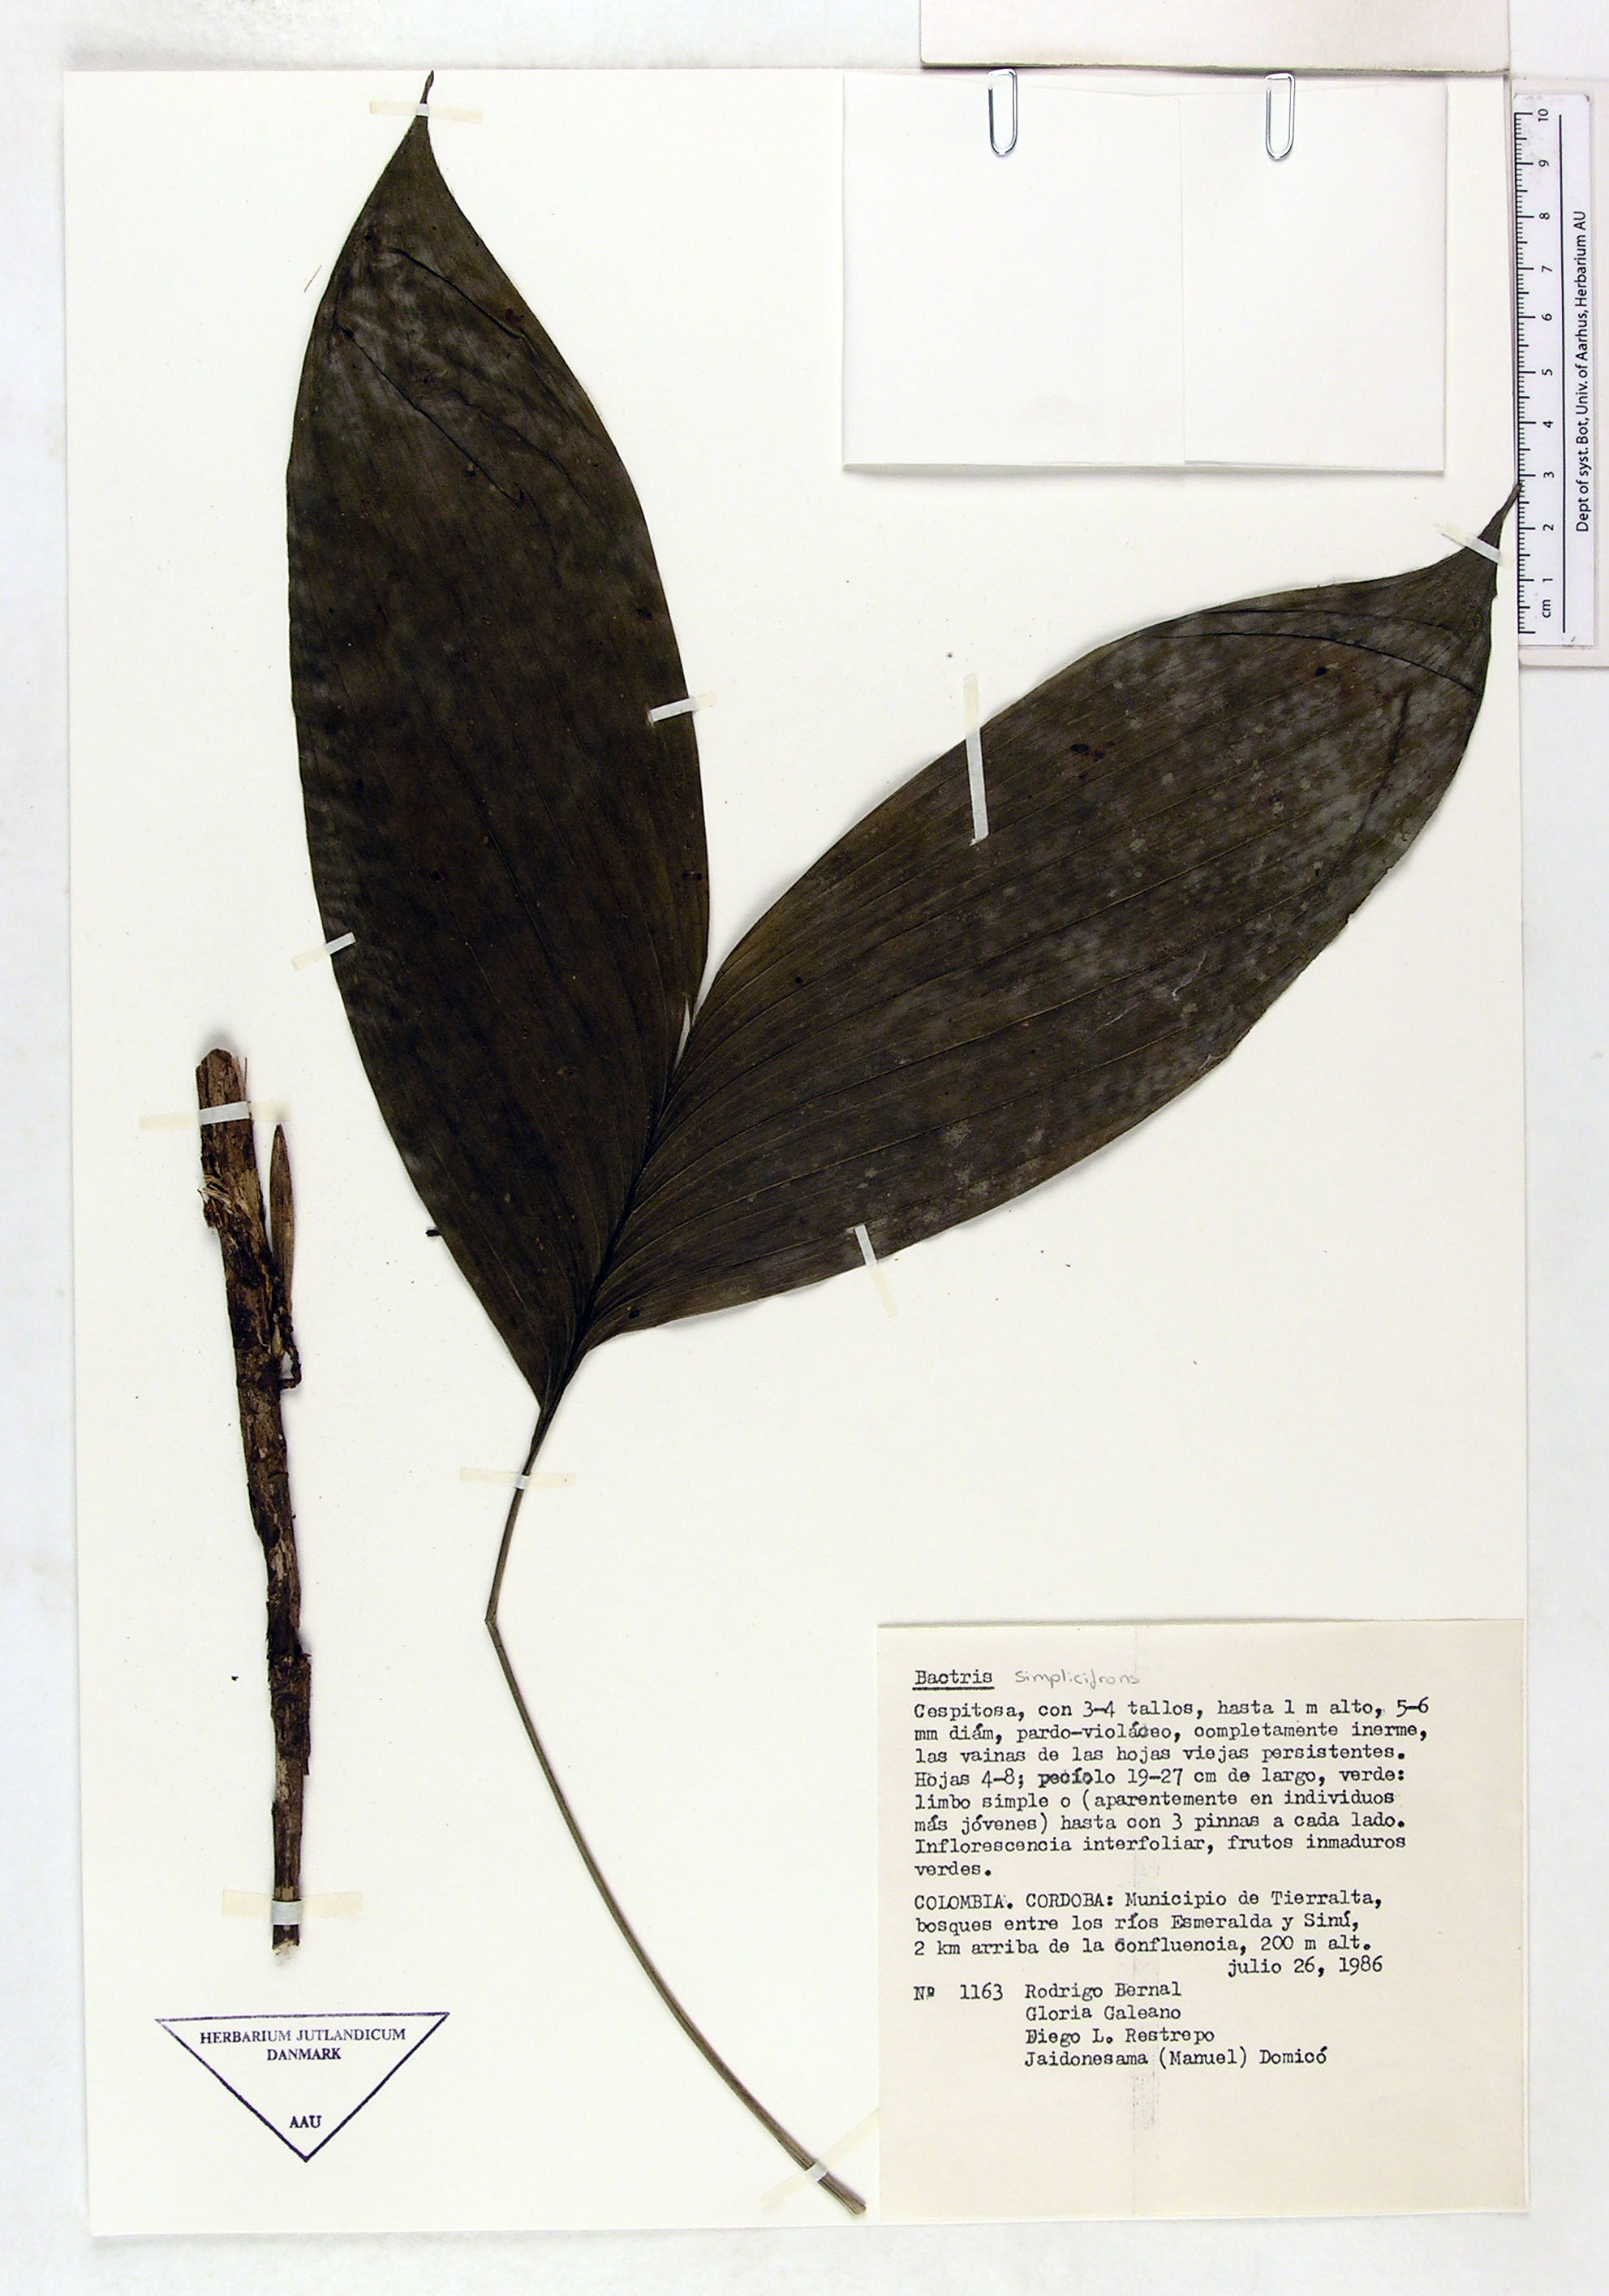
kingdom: Plantae
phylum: Tracheophyta
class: Liliopsida
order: Arecales
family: Arecaceae
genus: Bactris
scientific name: Bactris simplicifrons
